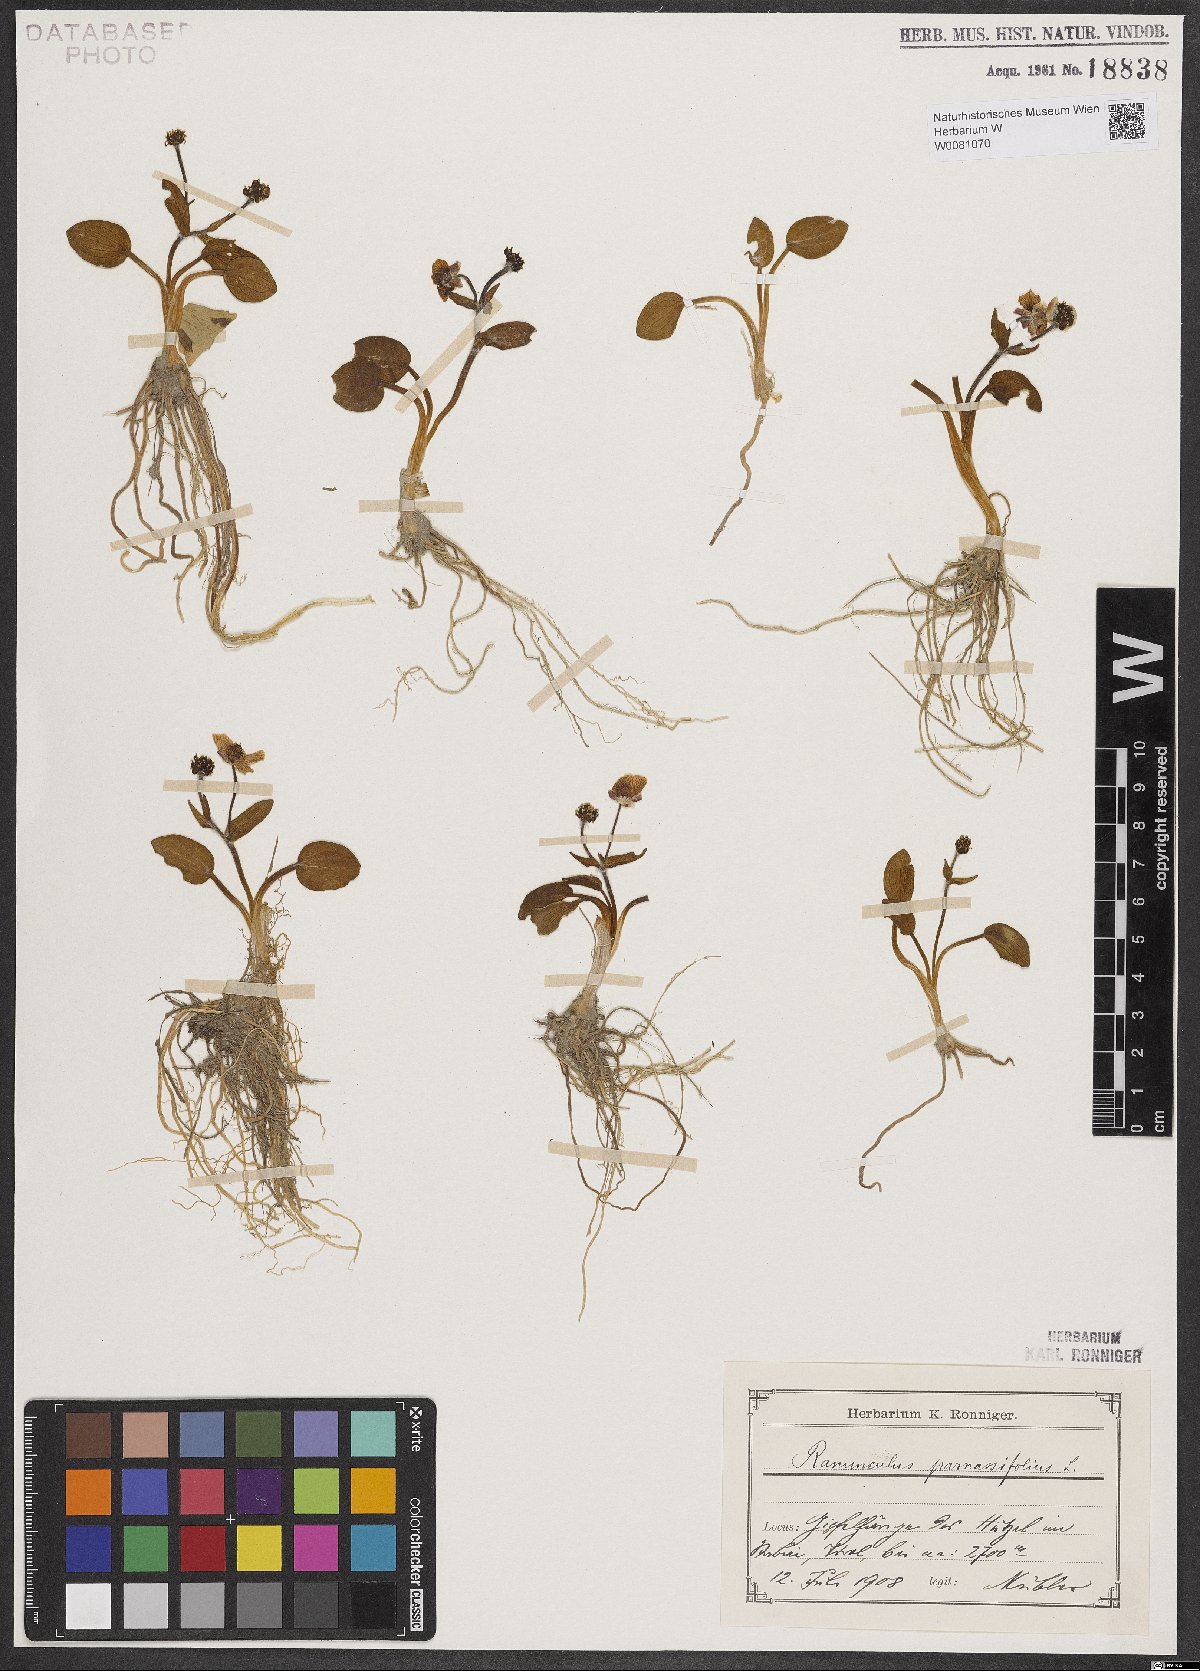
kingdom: Plantae
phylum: Tracheophyta
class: Magnoliopsida
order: Ranunculales
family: Ranunculaceae
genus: Ranunculus
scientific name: Ranunculus parnassiifolius
